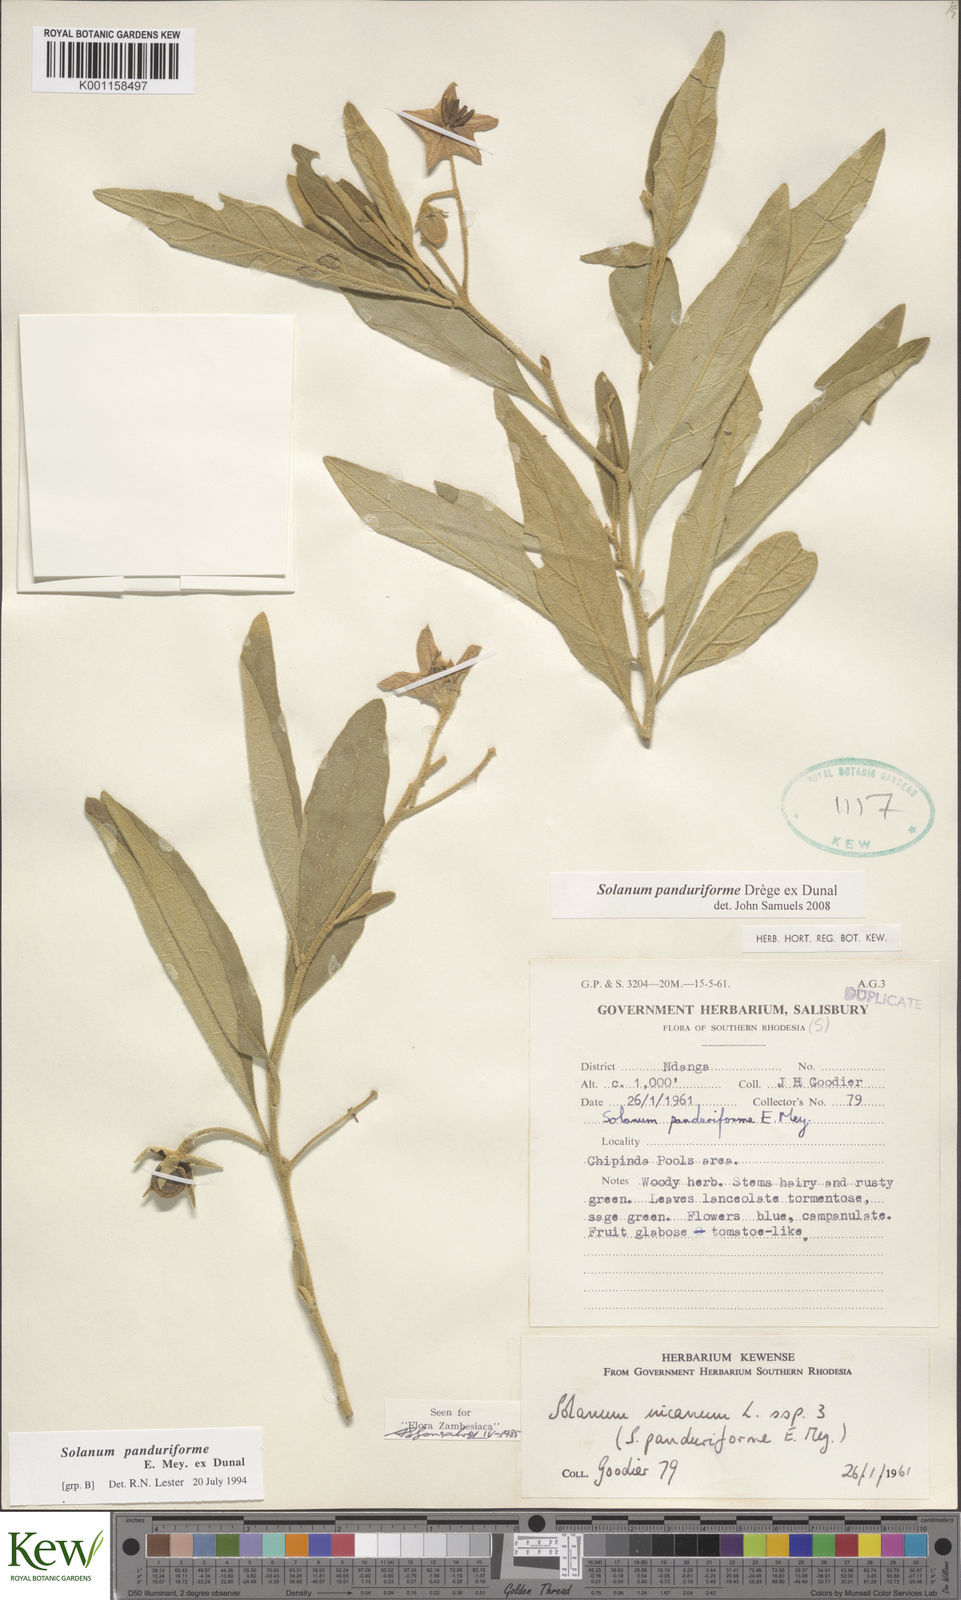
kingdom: Plantae
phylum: Tracheophyta
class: Magnoliopsida
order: Solanales
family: Solanaceae
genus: Solanum
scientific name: Solanum campylacanthum
